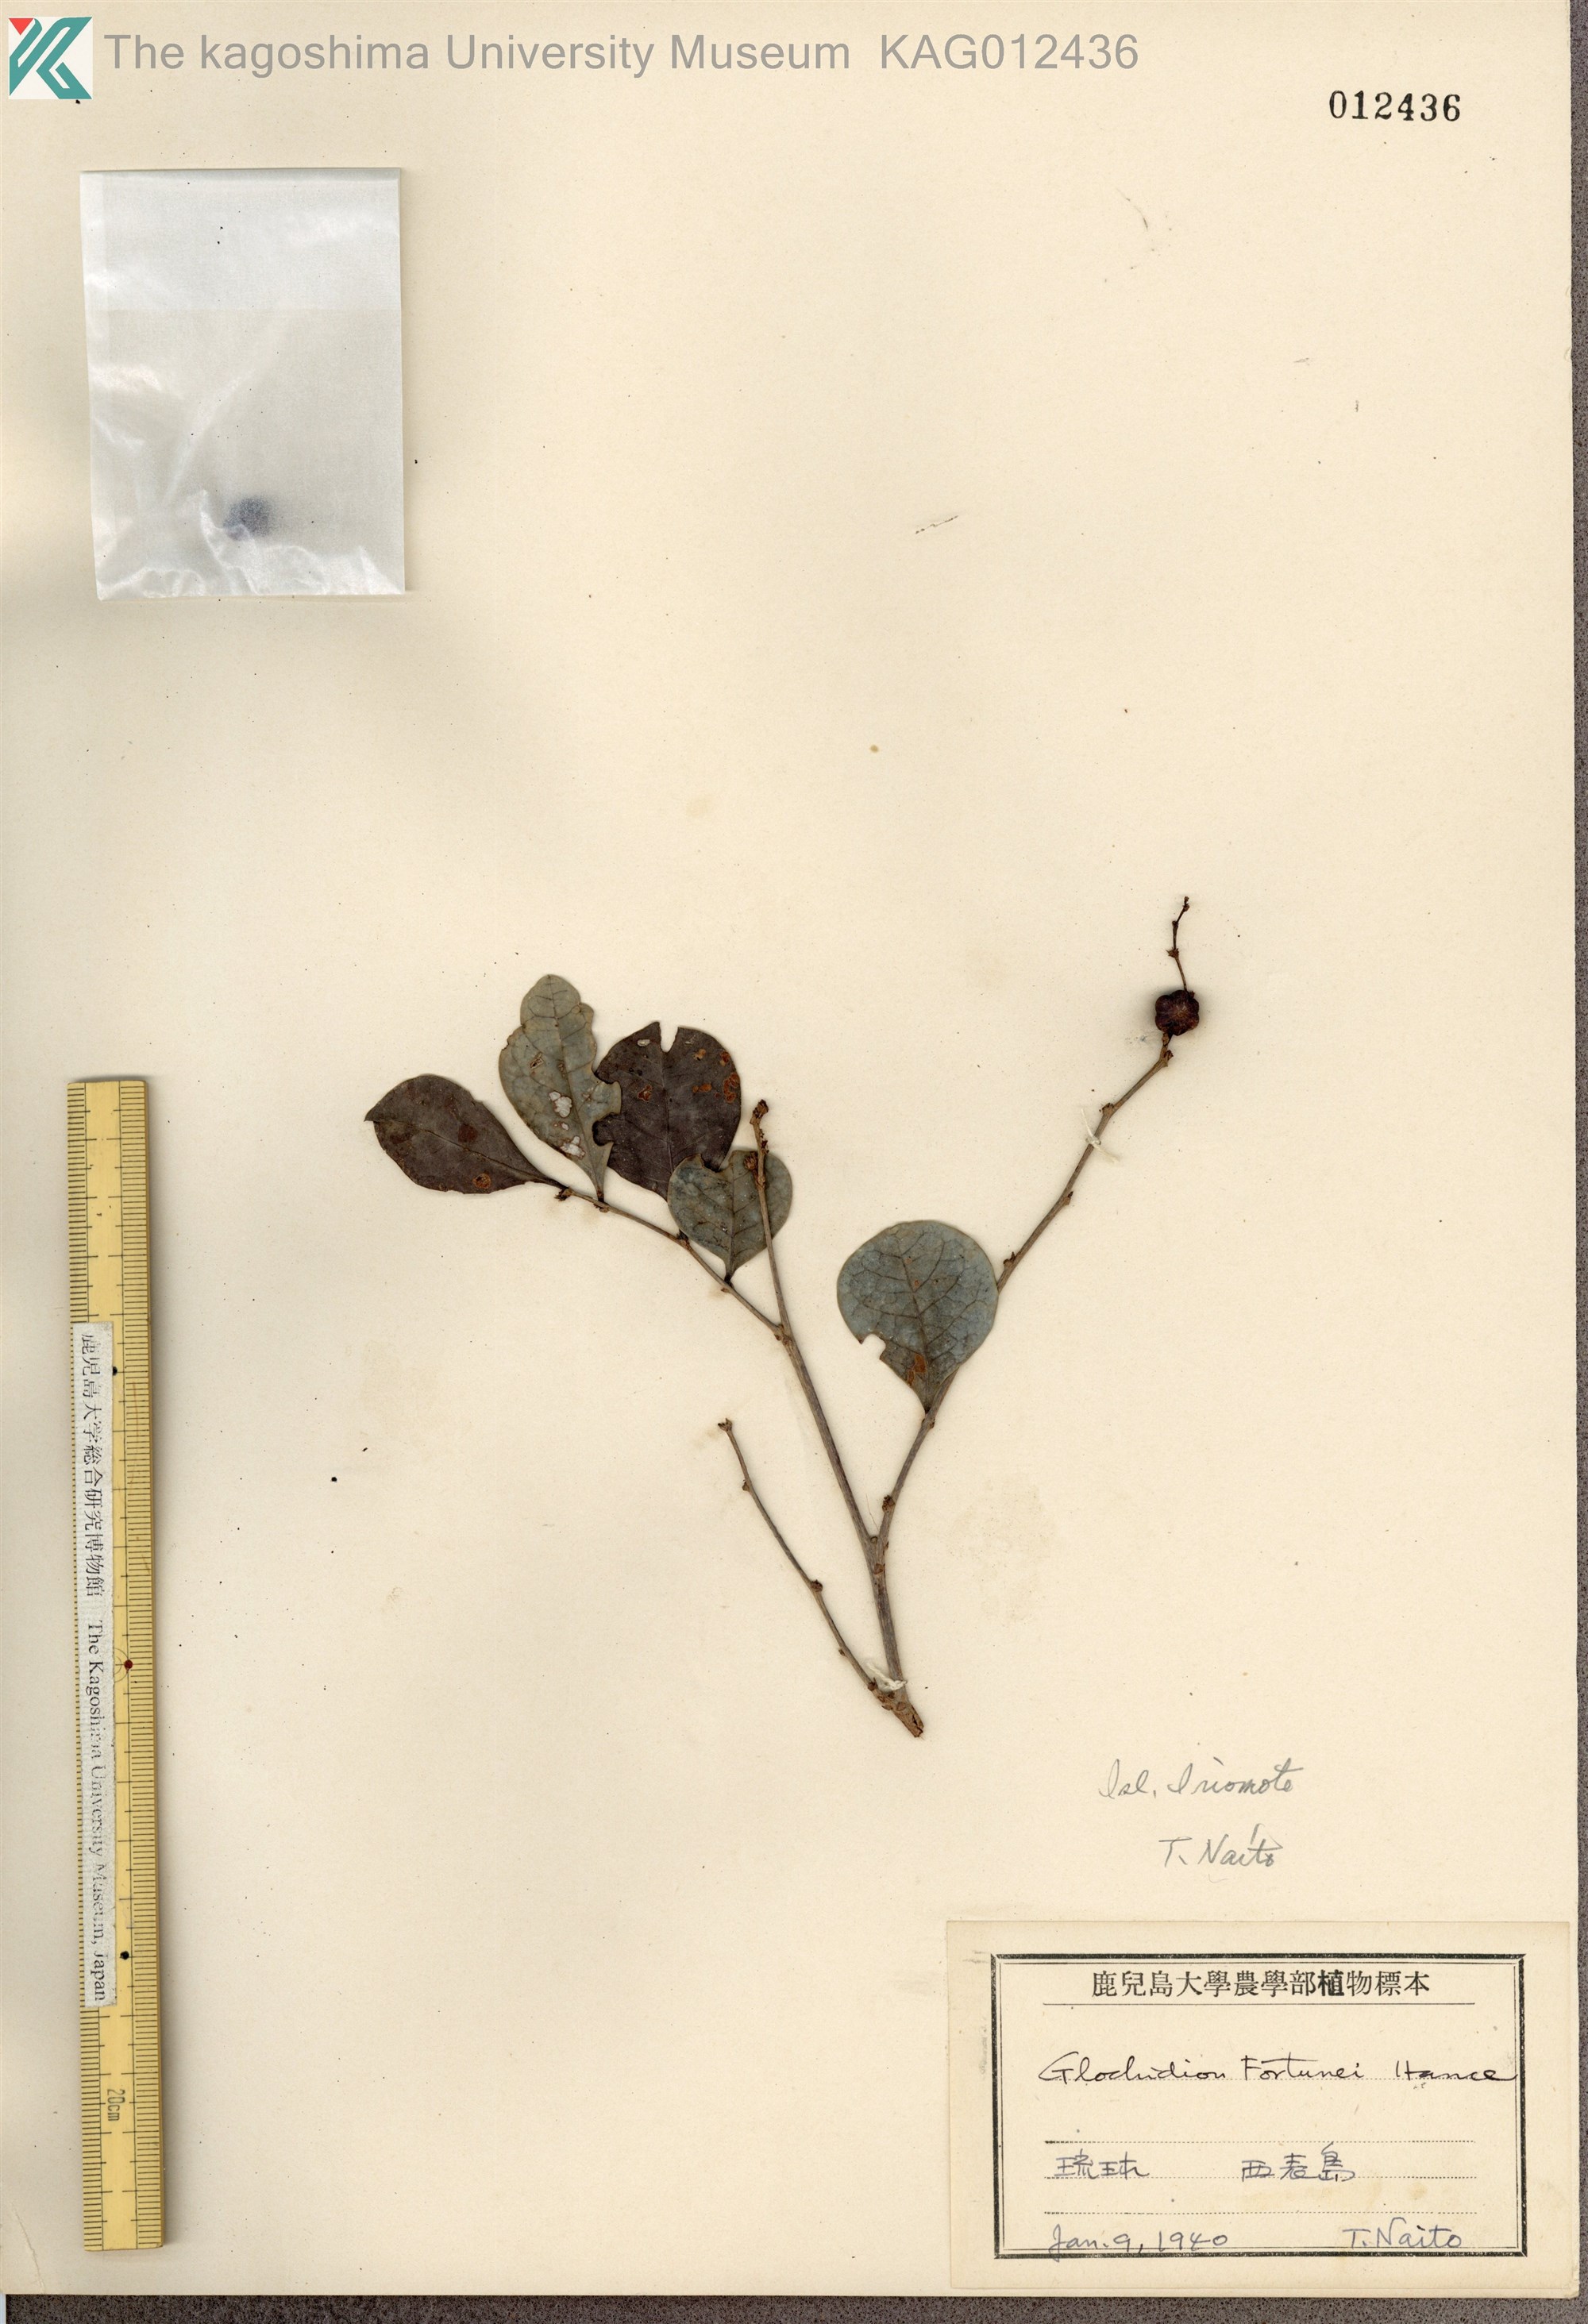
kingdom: Plantae
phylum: Tracheophyta
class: Magnoliopsida
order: Malpighiales
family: Phyllanthaceae
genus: Glochidion
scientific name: Glochidion rubrum
